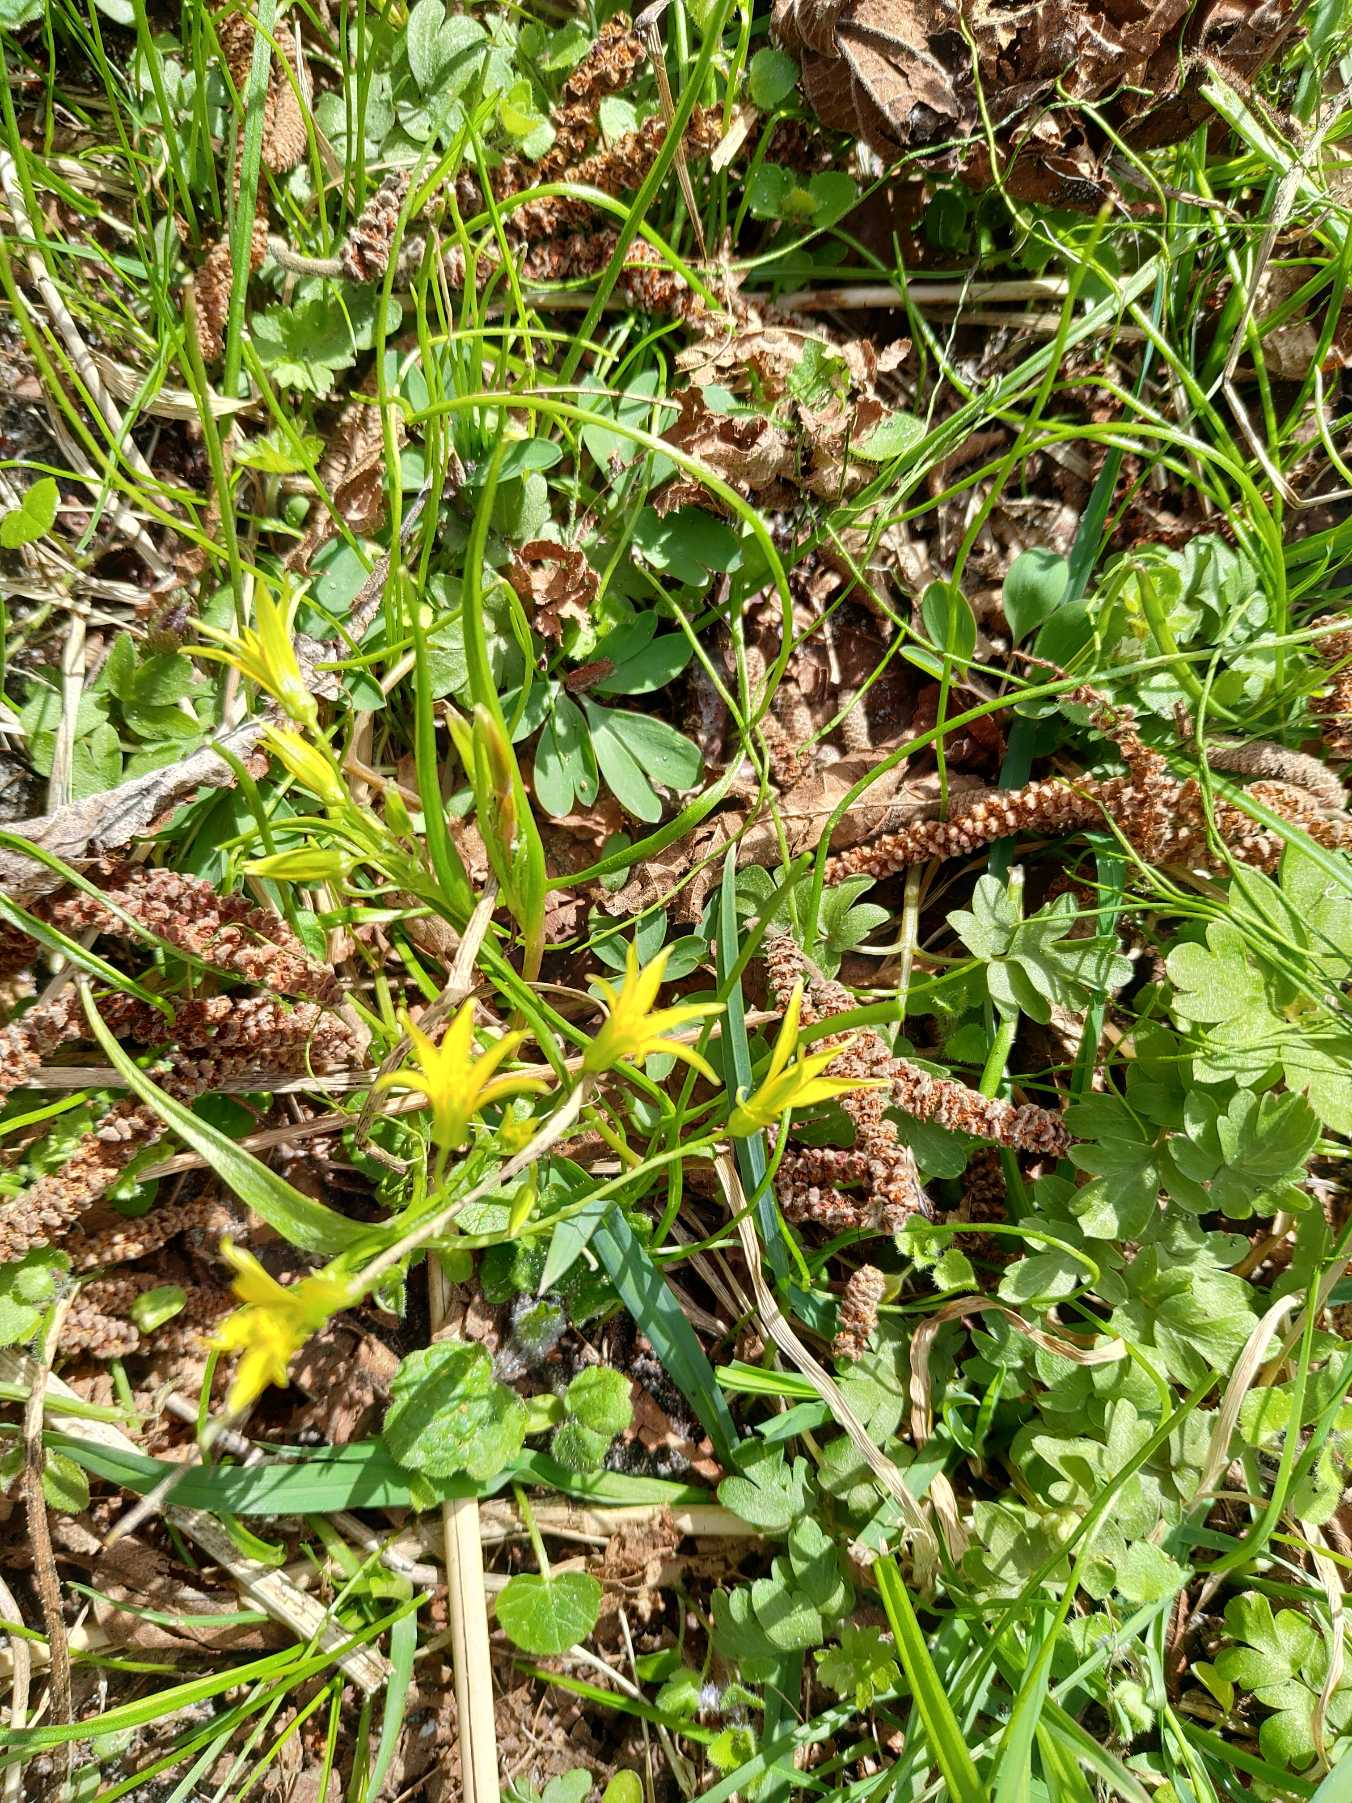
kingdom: Plantae
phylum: Tracheophyta
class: Liliopsida
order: Liliales
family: Liliaceae
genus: Gagea
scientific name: Gagea minima
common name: Liden guldstjerne
